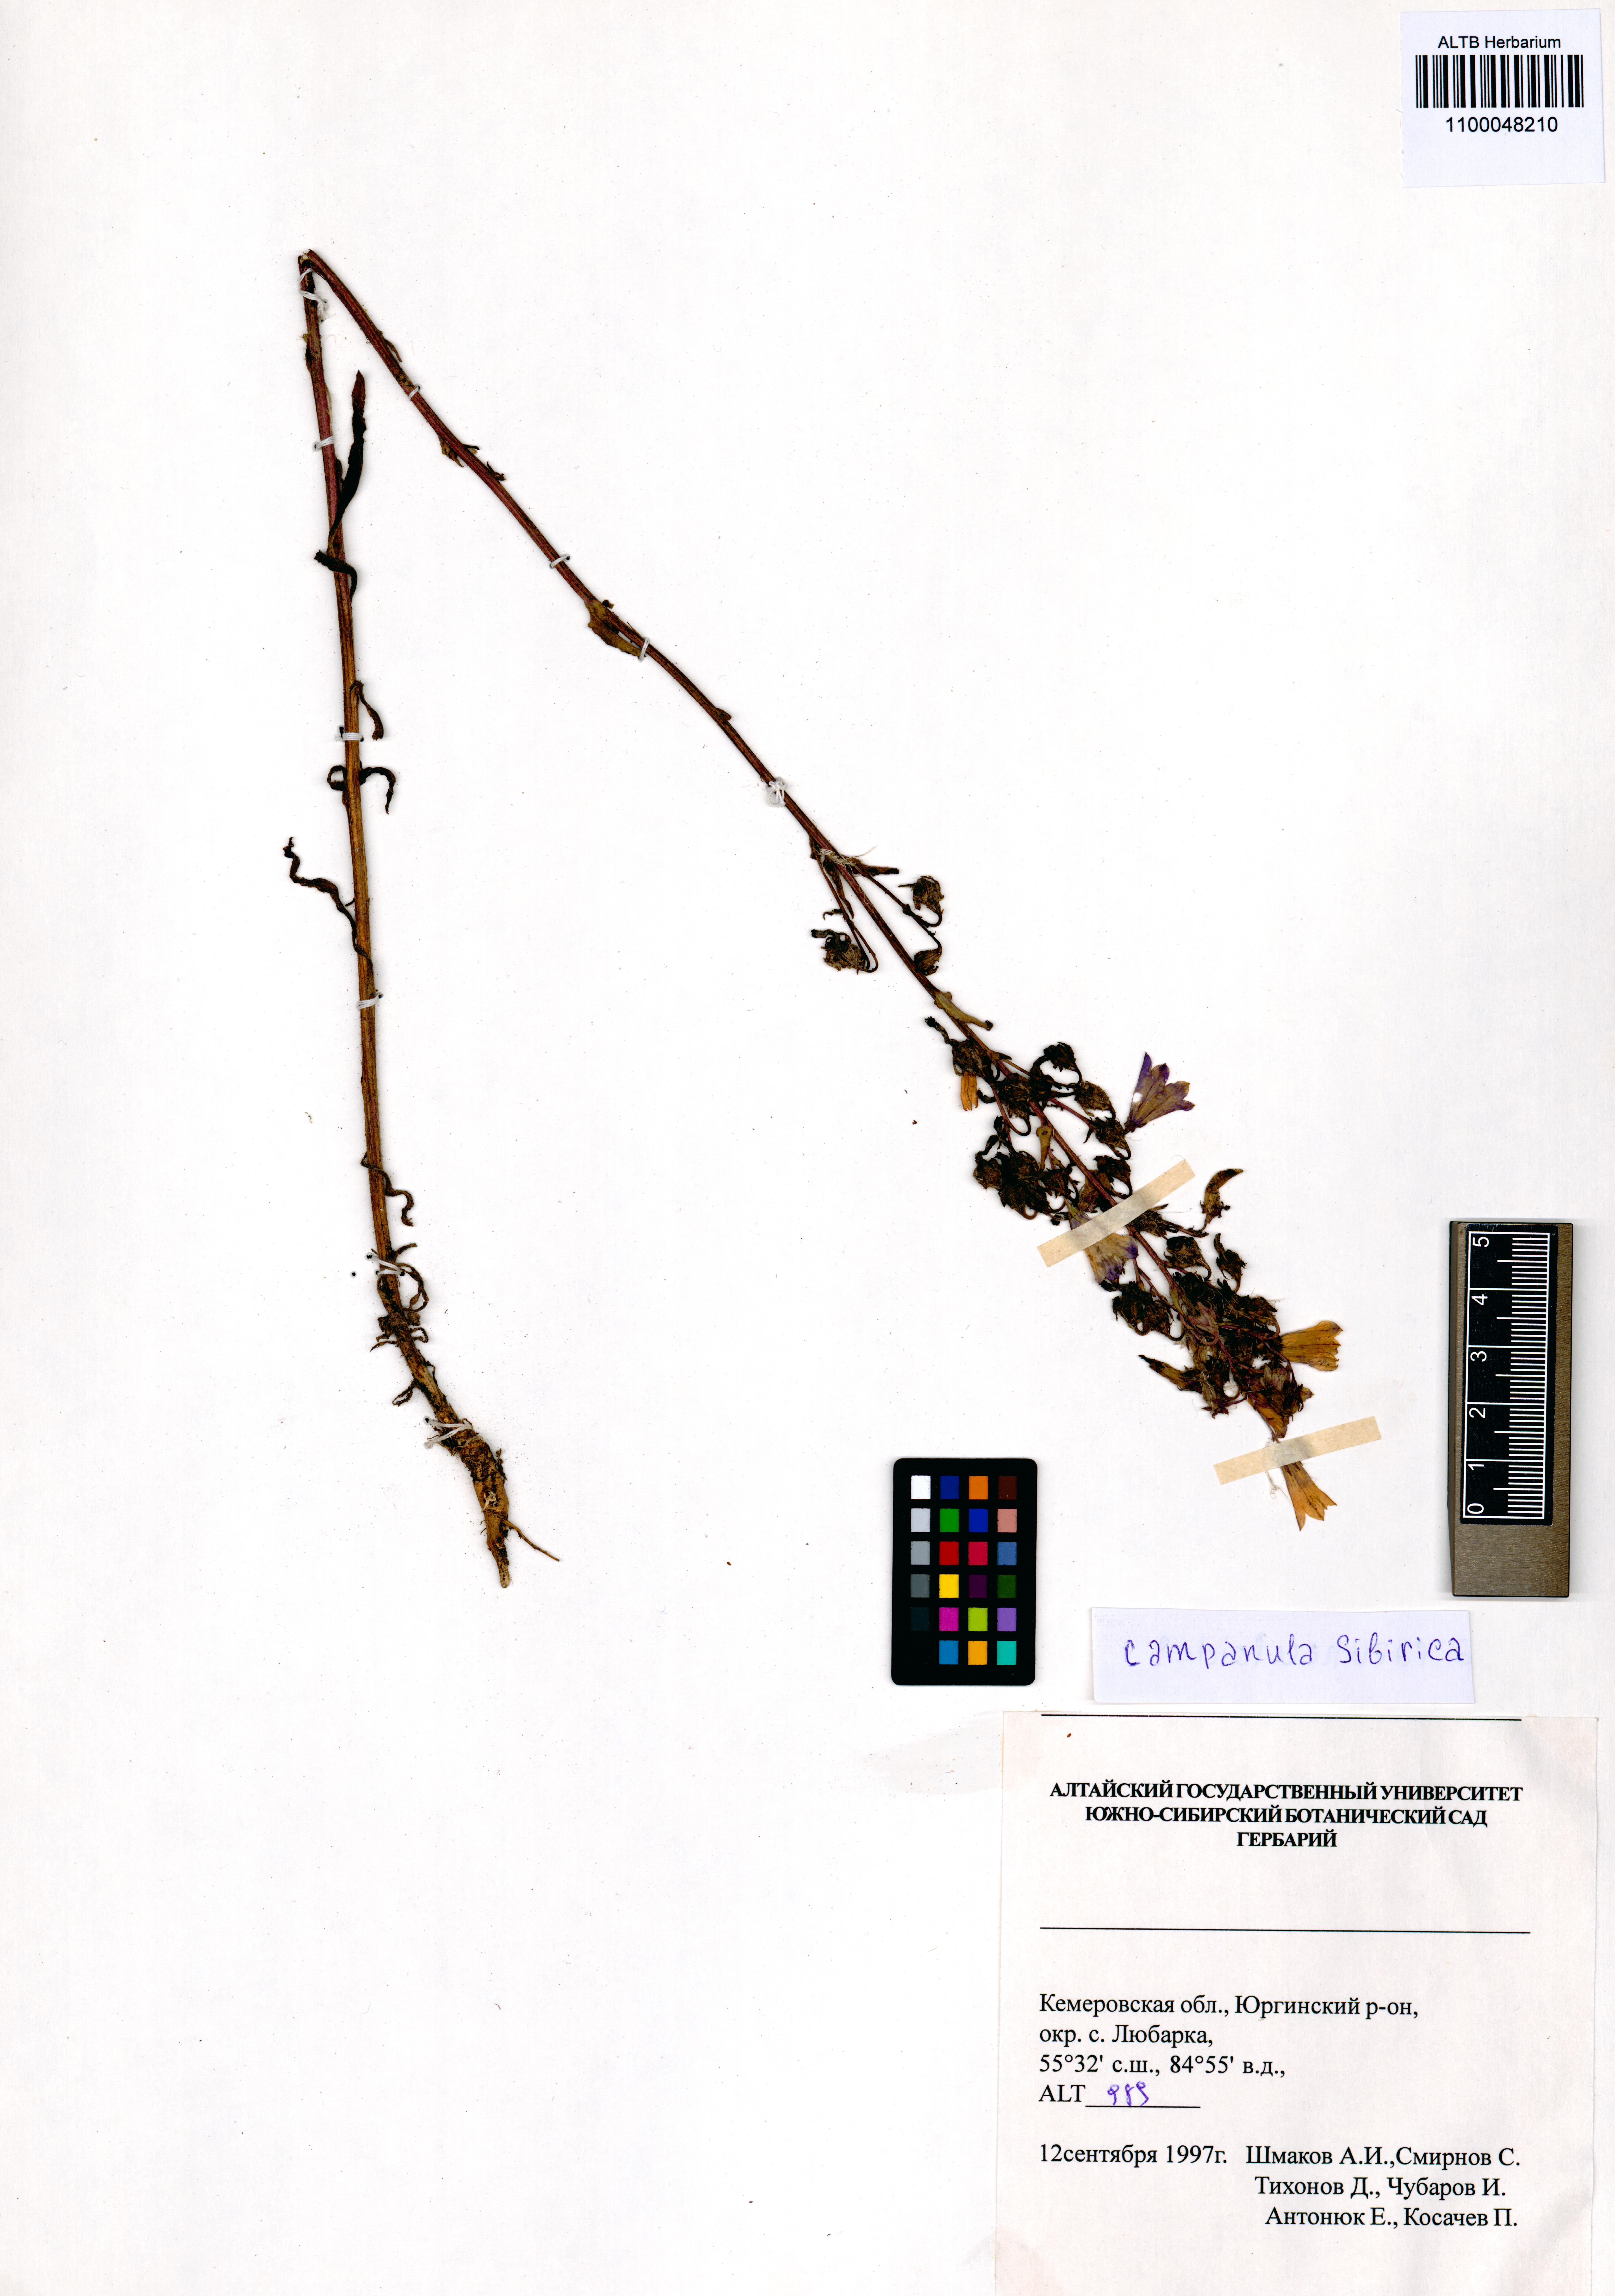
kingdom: Plantae
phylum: Tracheophyta
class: Magnoliopsida
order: Asterales
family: Campanulaceae
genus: Campanula
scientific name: Campanula sibirica
